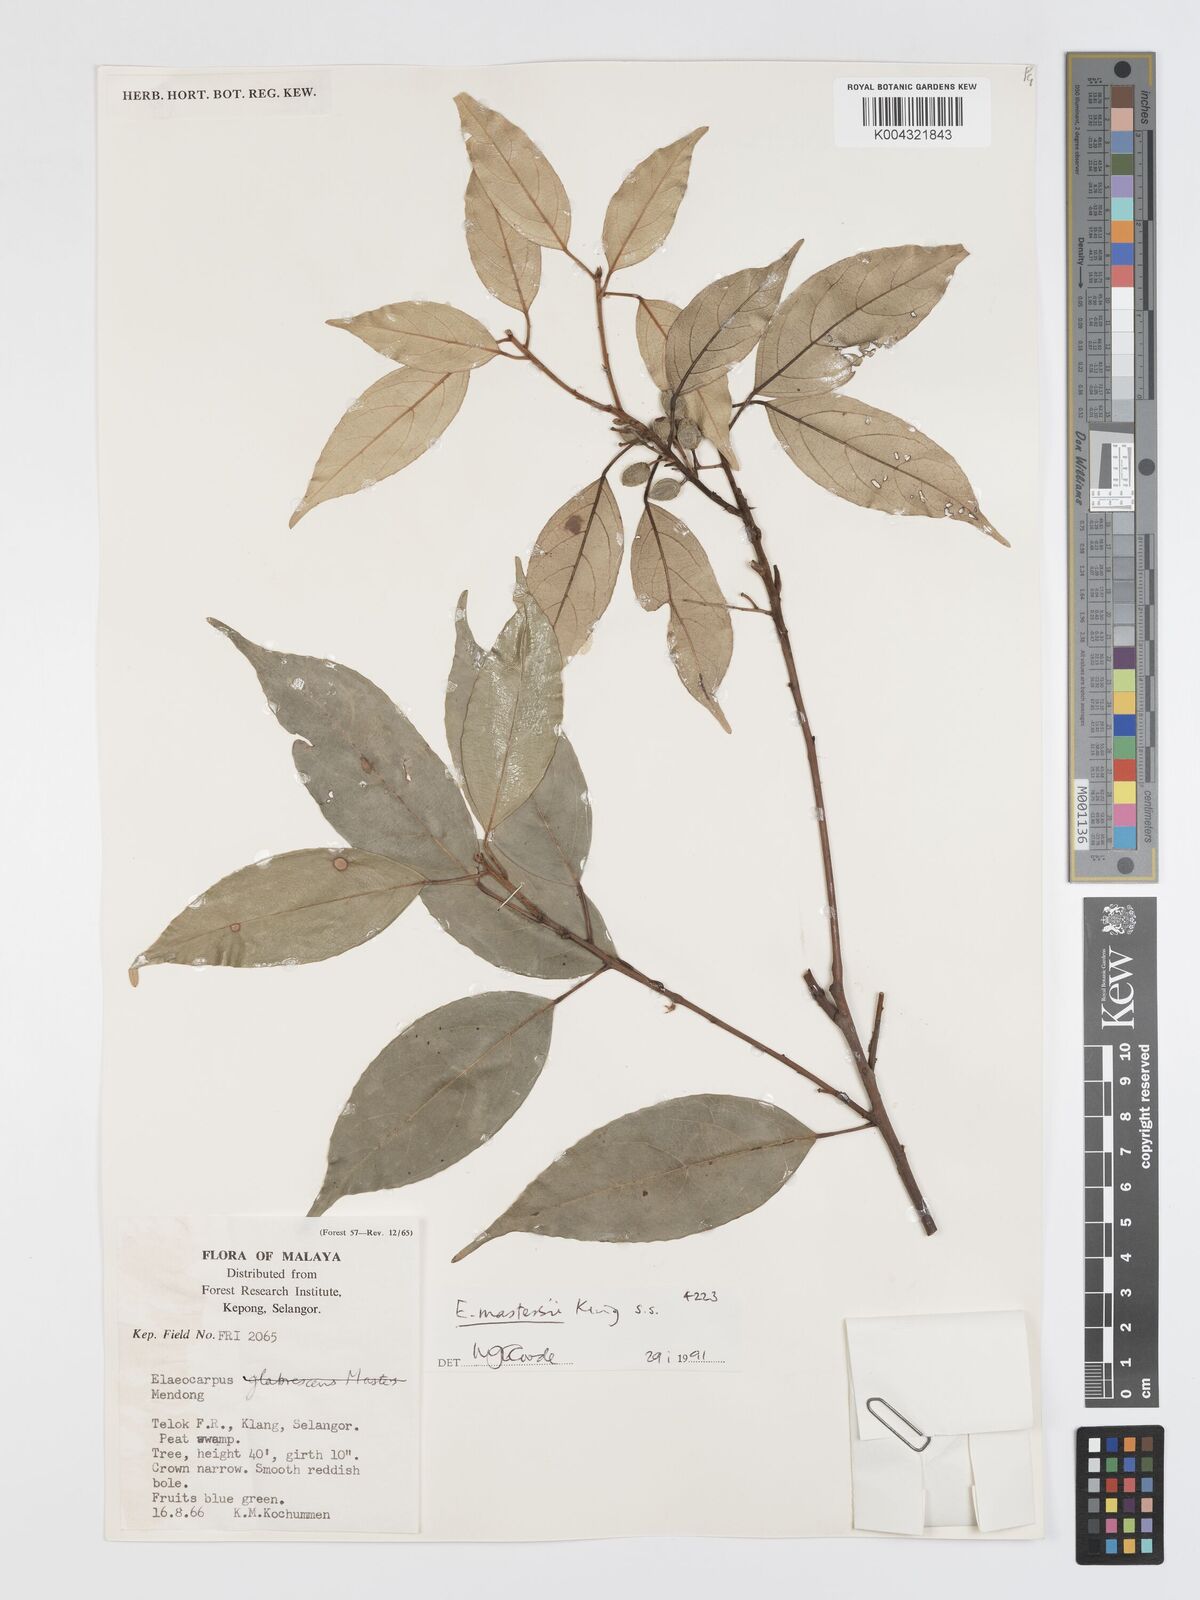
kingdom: Plantae
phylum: Tracheophyta
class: Magnoliopsida
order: Oxalidales
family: Elaeocarpaceae
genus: Elaeocarpus
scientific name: Elaeocarpus mastersii
